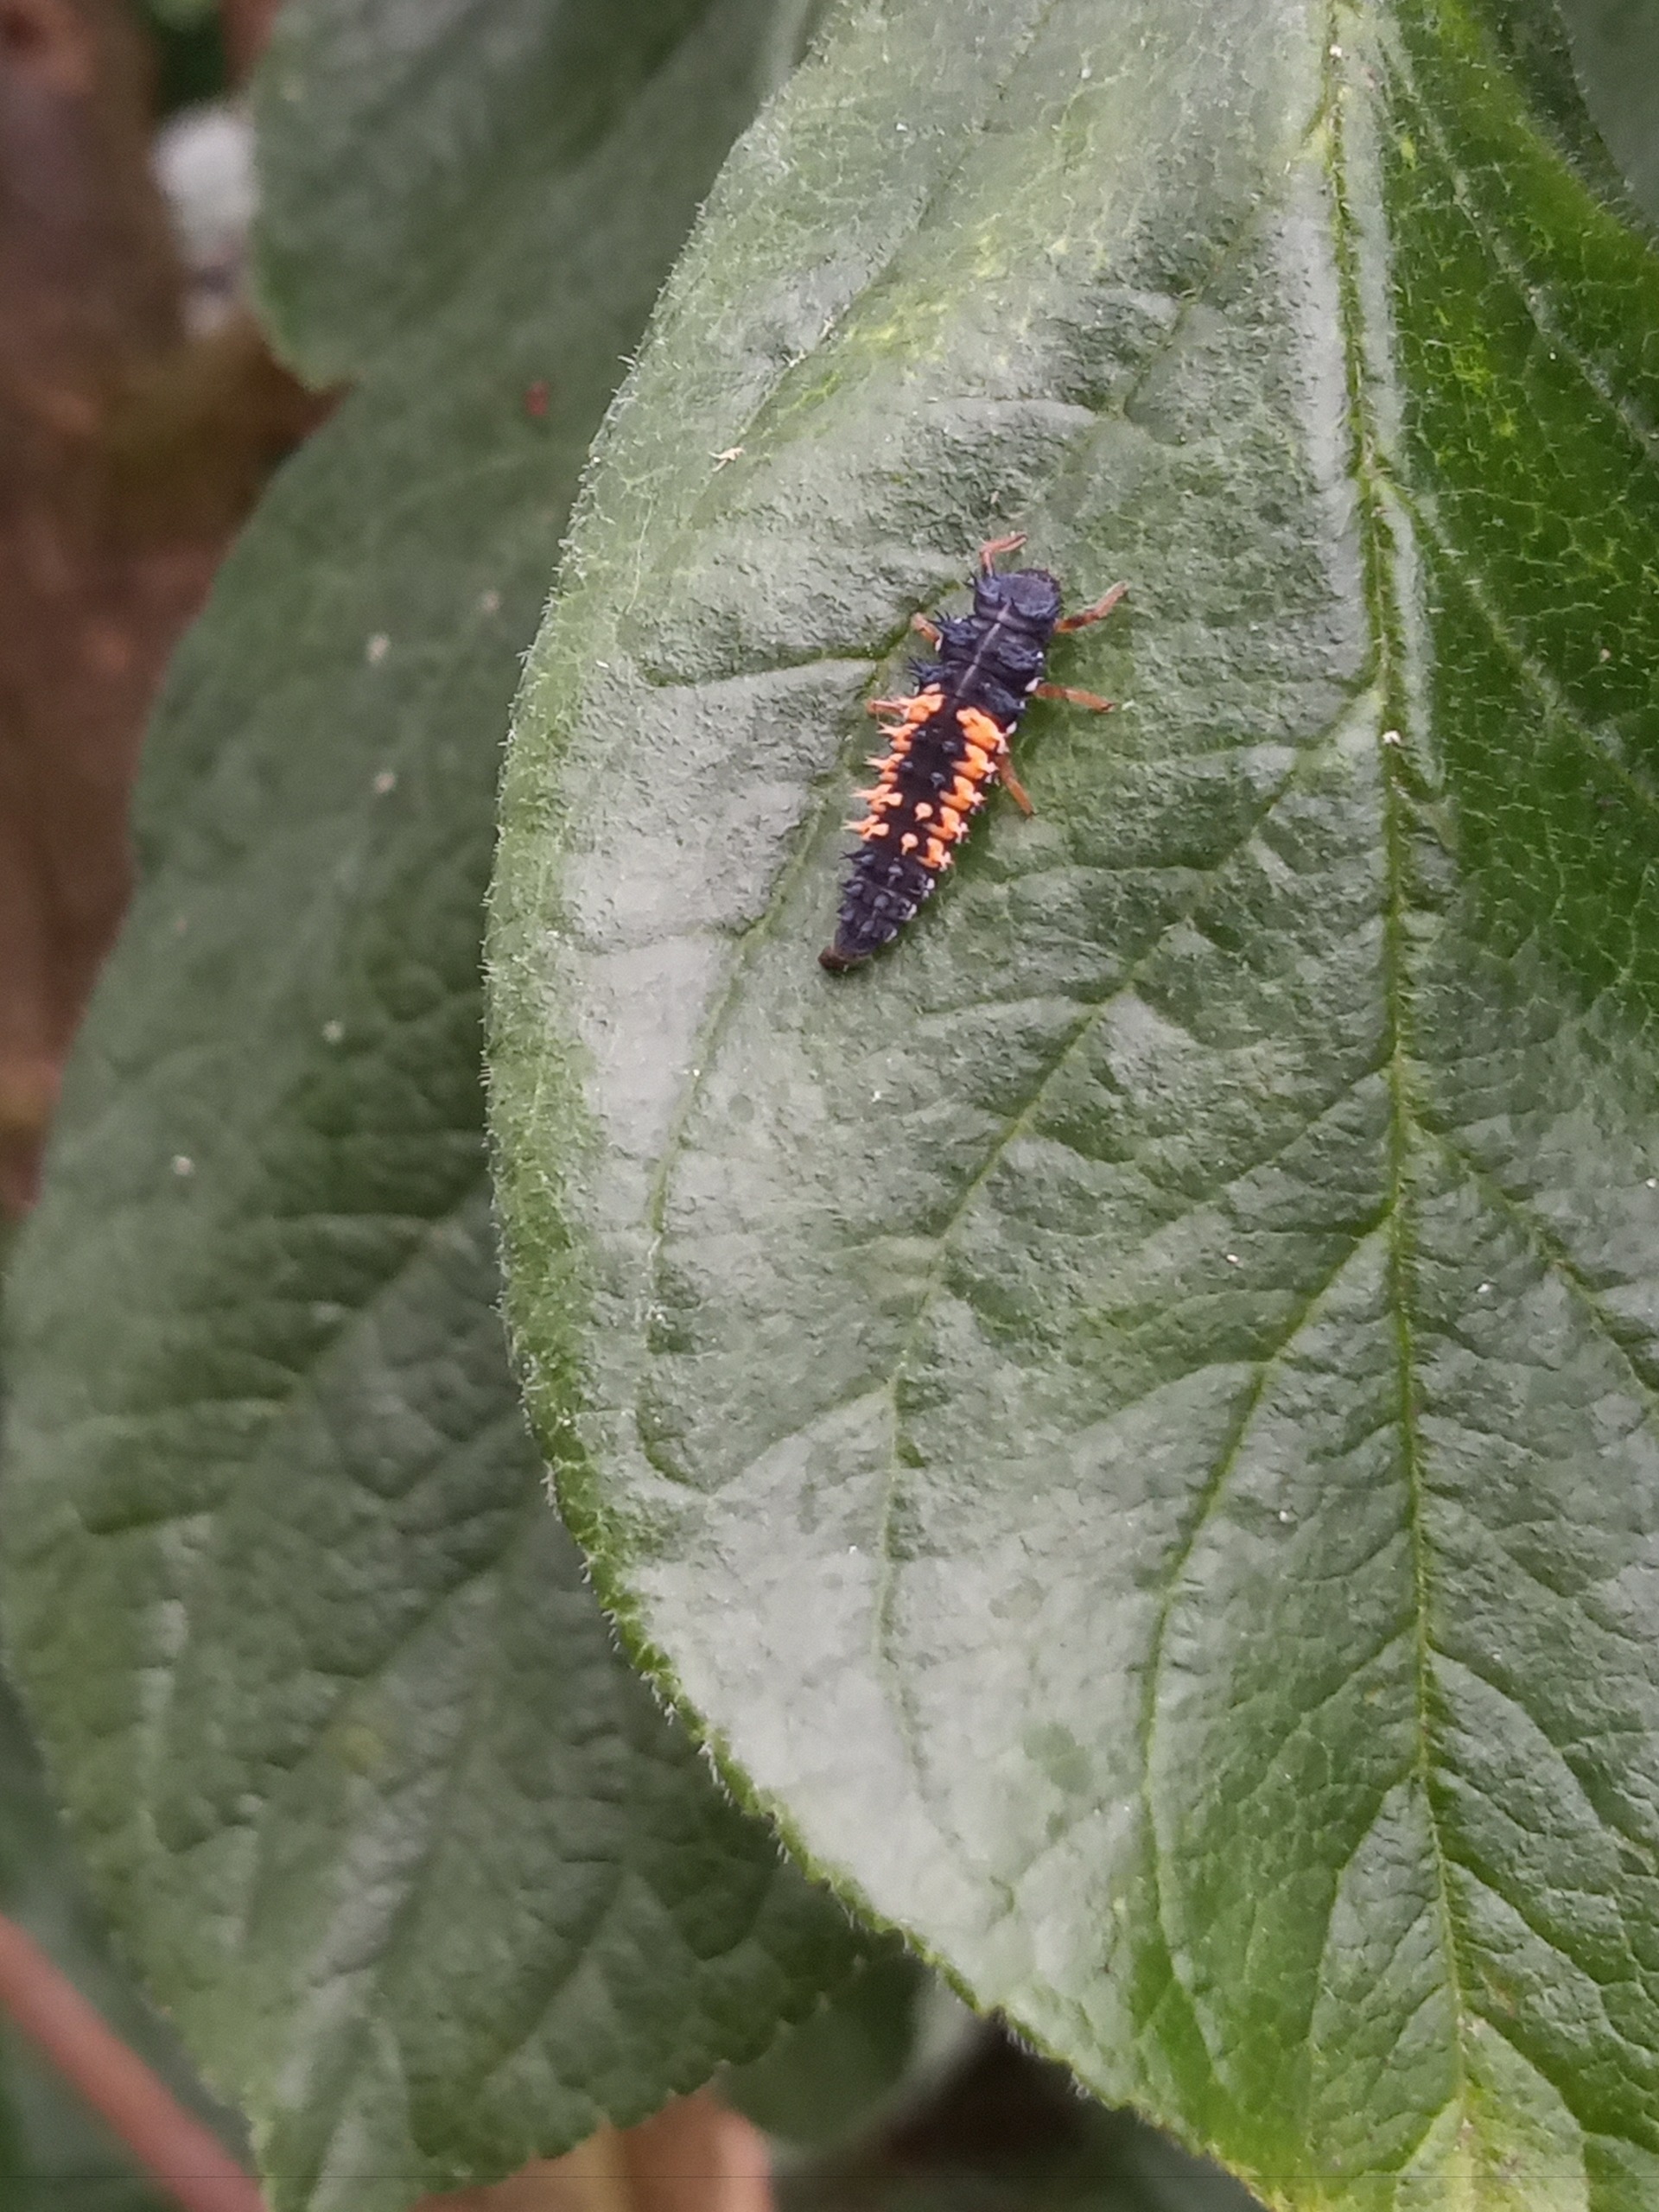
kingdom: Animalia
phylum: Arthropoda
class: Insecta
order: Coleoptera
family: Coccinellidae
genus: Harmonia
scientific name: Harmonia axyridis
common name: Harlekinmariehøne
